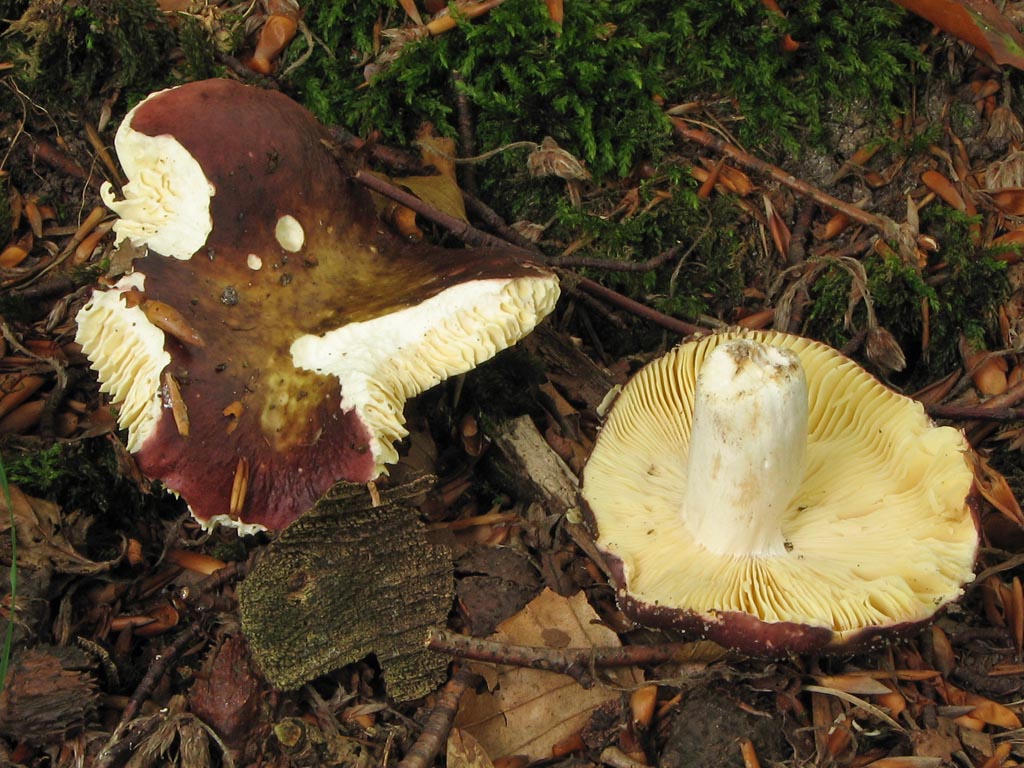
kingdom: Fungi
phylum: Basidiomycota
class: Agaricomycetes
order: Russulales
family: Russulaceae
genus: Russula
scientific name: Russula romellii
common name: romells skørhat
